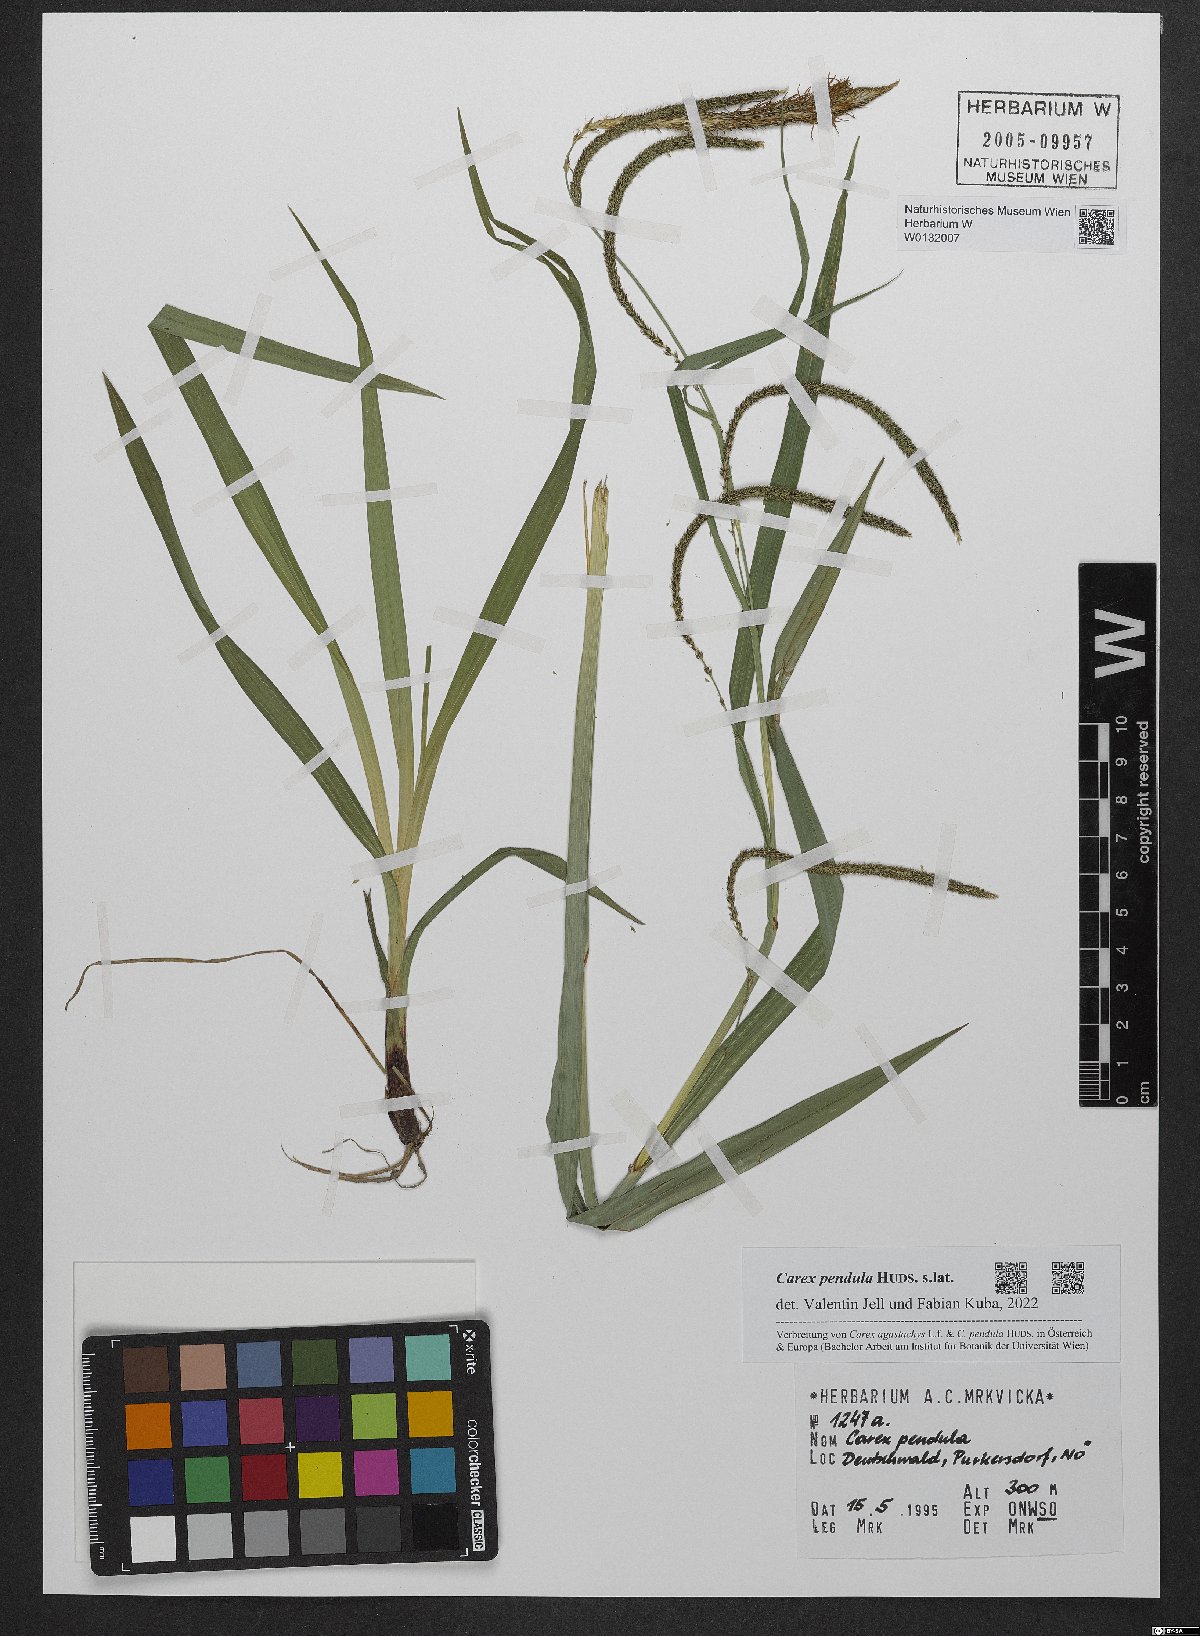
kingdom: Plantae
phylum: Tracheophyta
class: Liliopsida
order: Poales
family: Cyperaceae
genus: Carex
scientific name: Carex pendula
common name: Pendulous sedge
